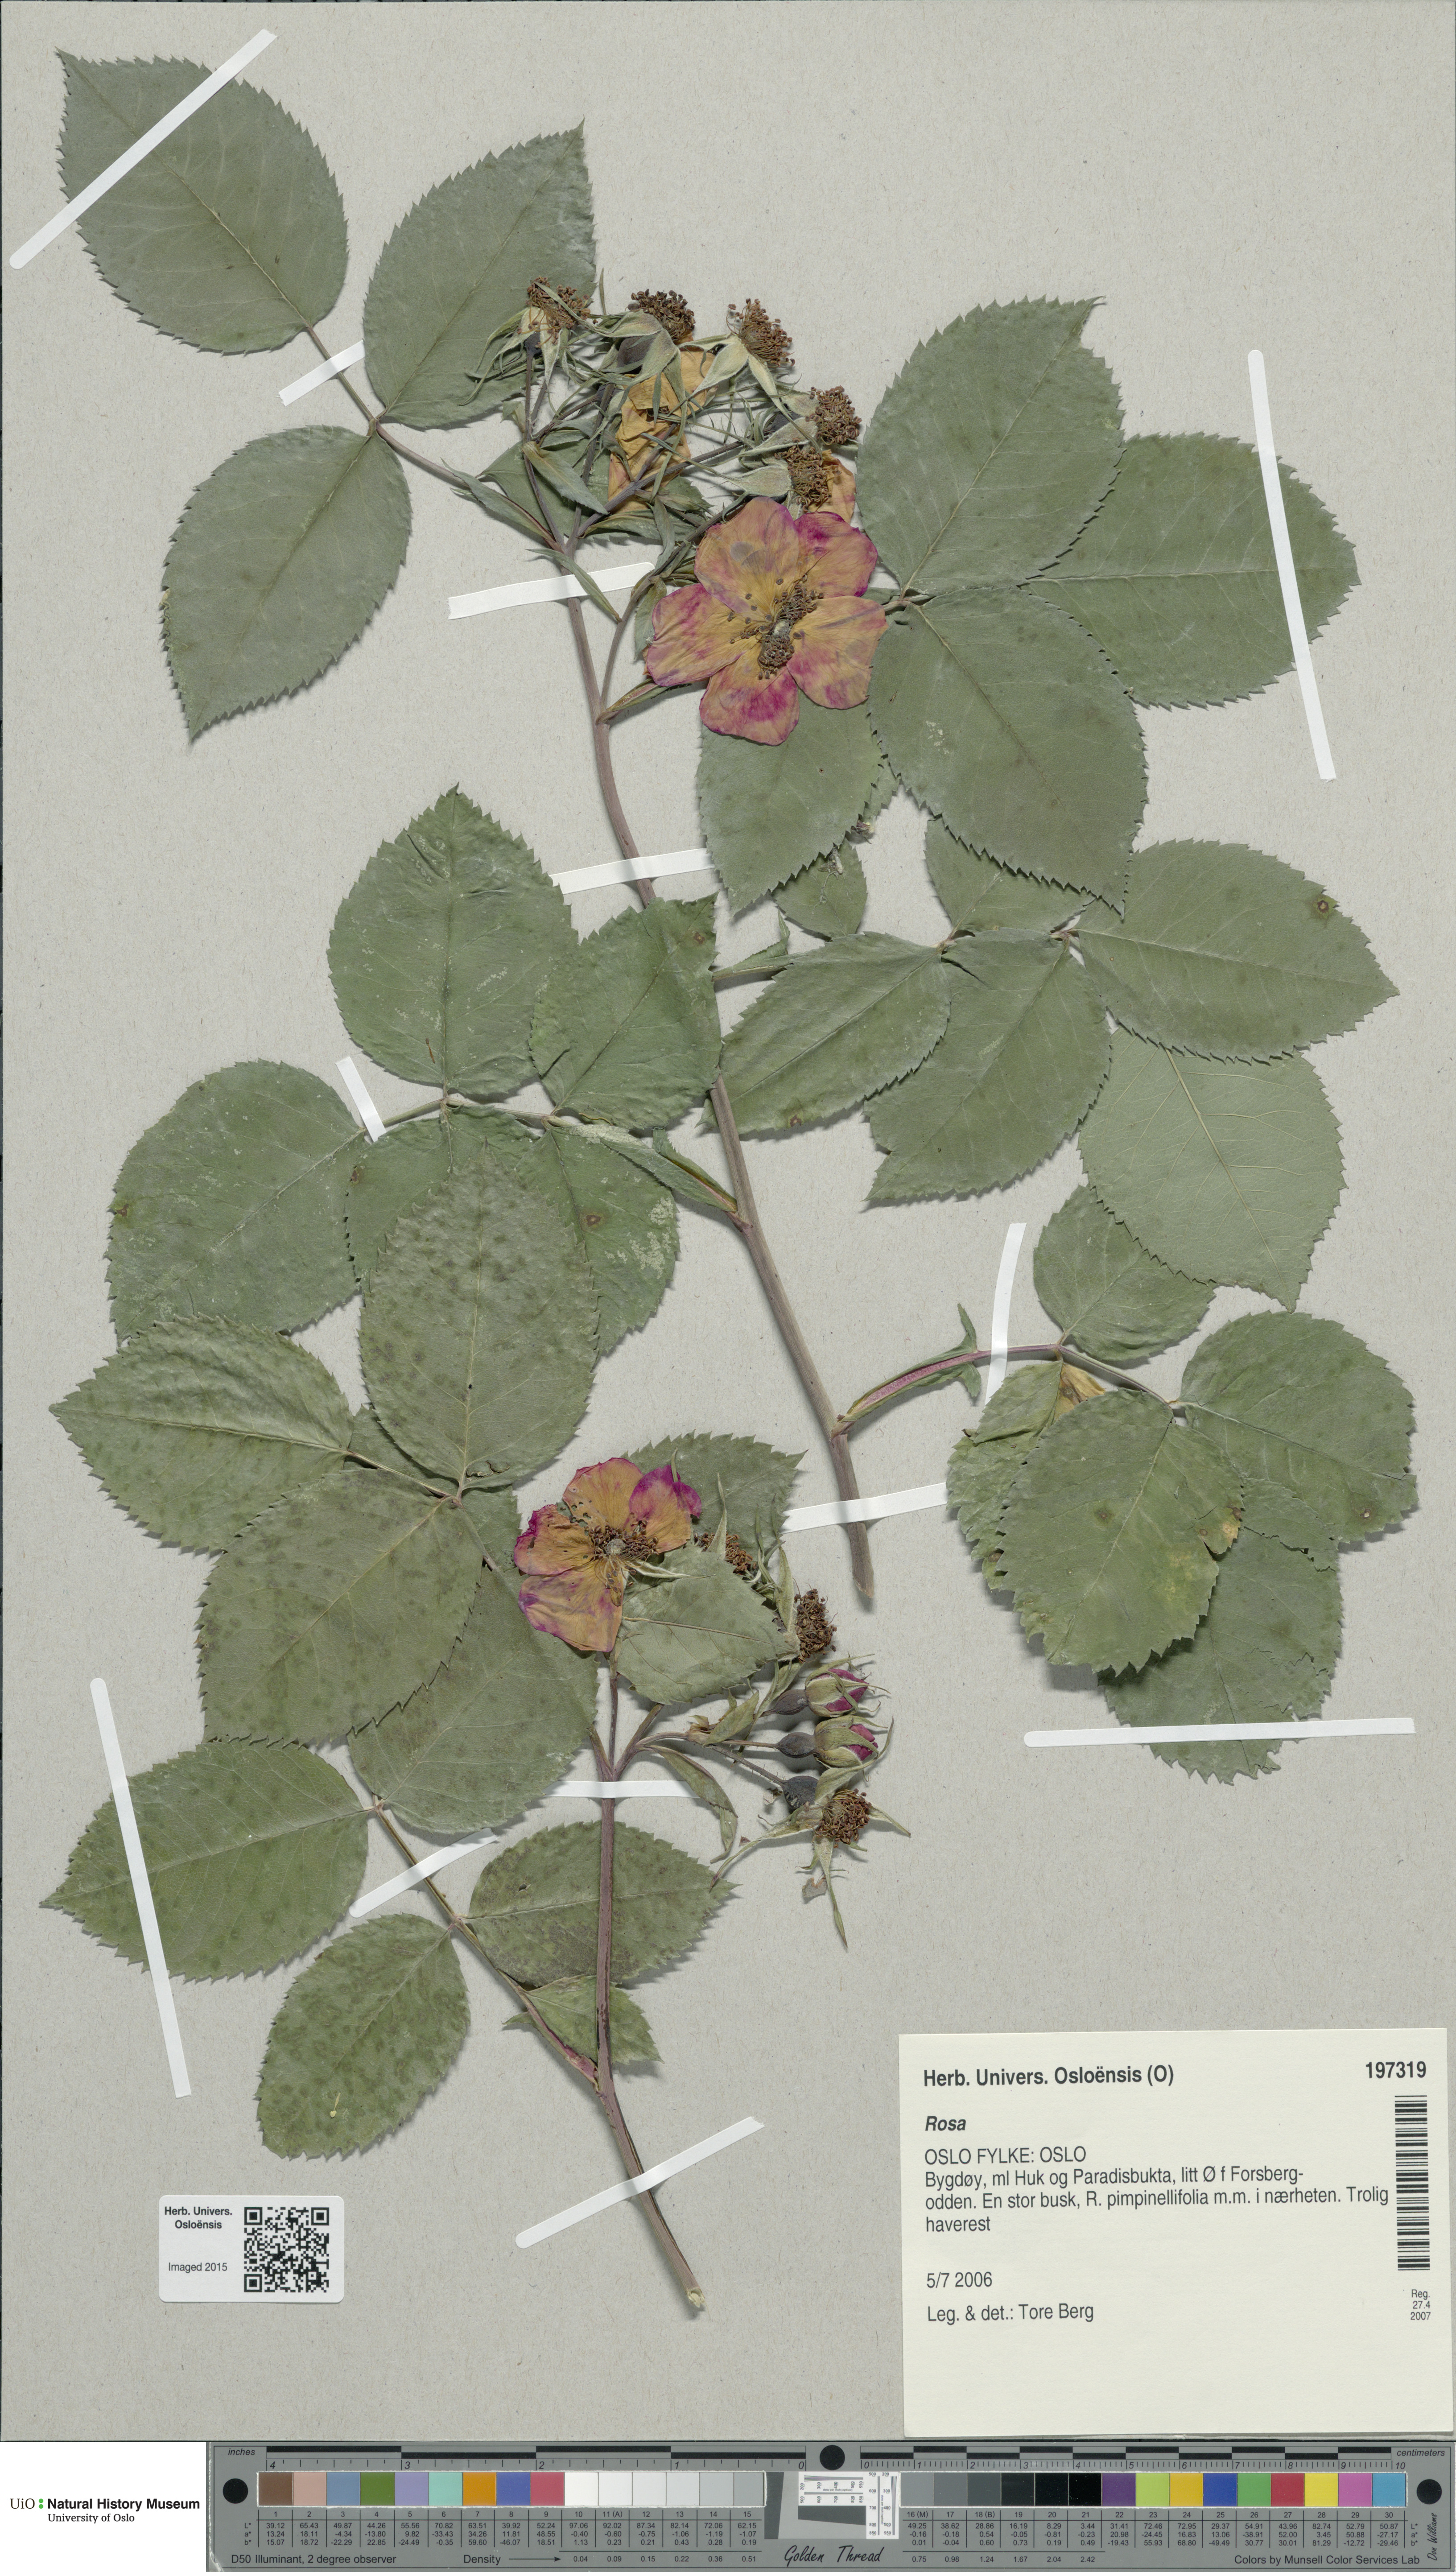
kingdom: Plantae
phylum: Tracheophyta
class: Magnoliopsida
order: Rosales
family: Rosaceae
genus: Rosa
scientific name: Rosa
